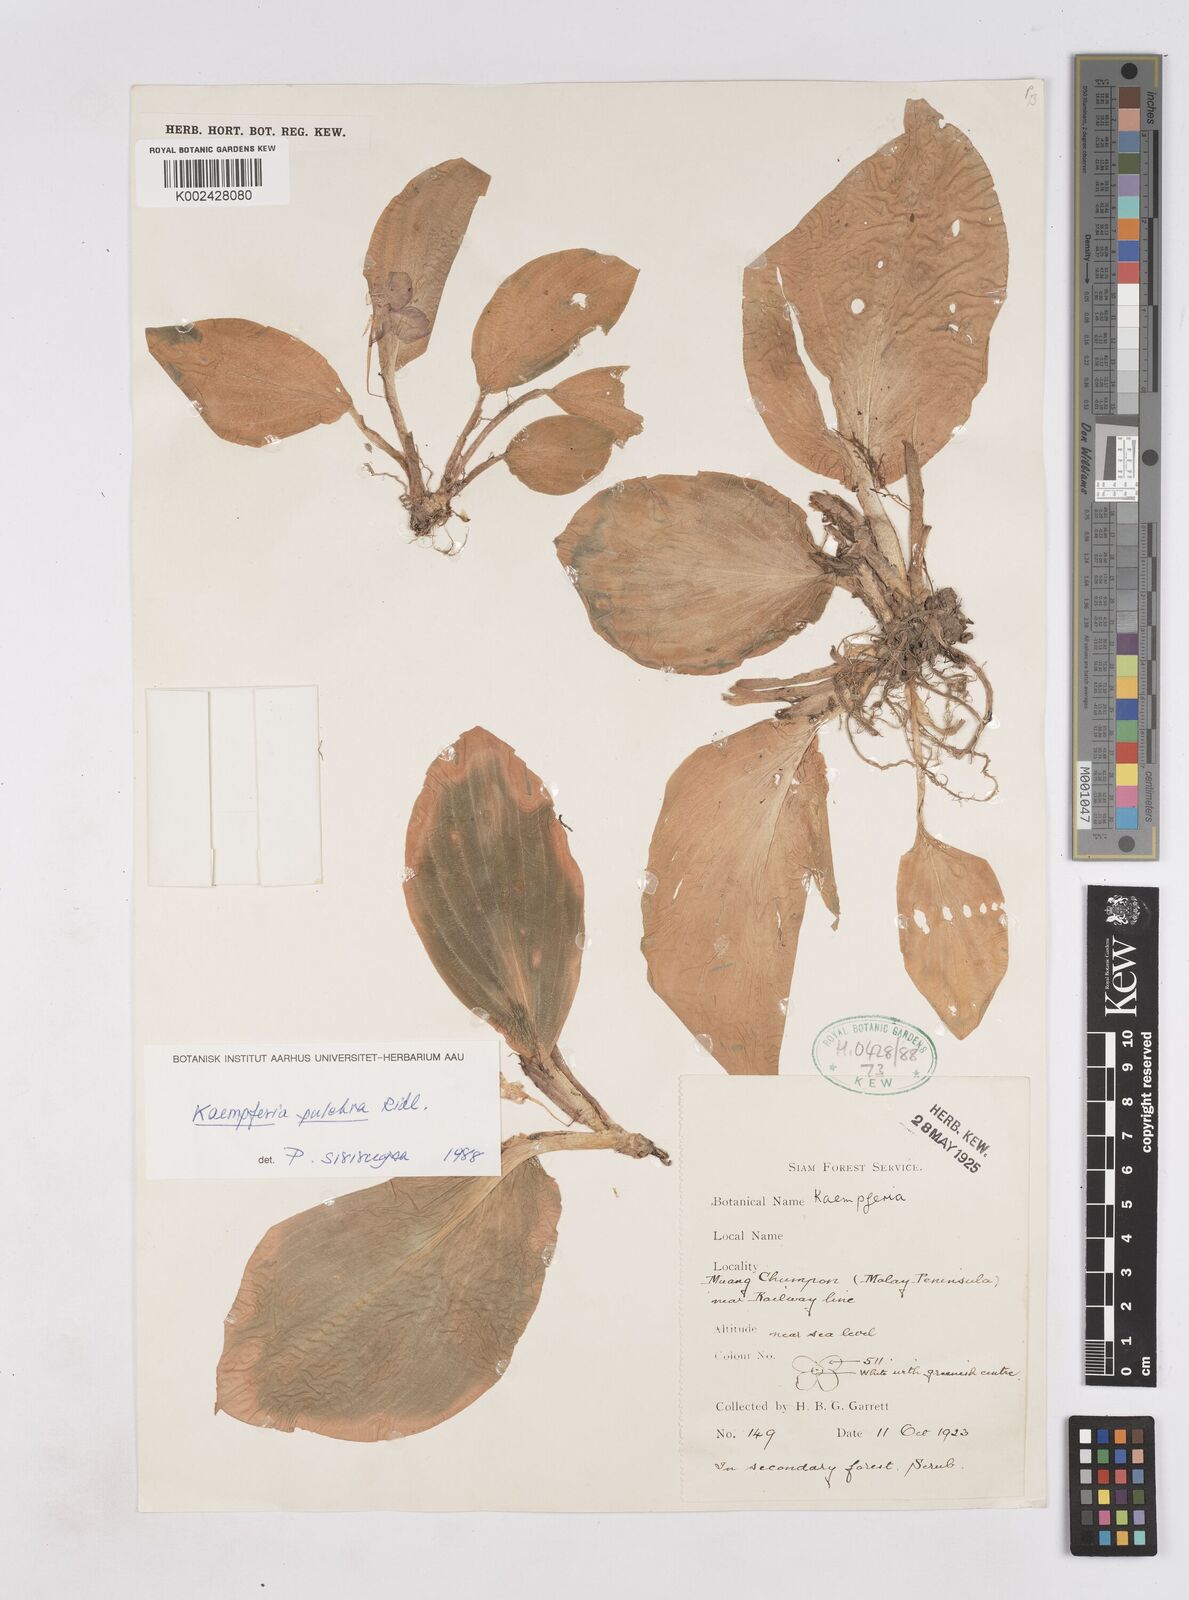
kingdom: Plantae
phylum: Tracheophyta
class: Liliopsida
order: Zingiberales
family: Zingiberaceae
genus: Kaempferia
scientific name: Kaempferia elegans
